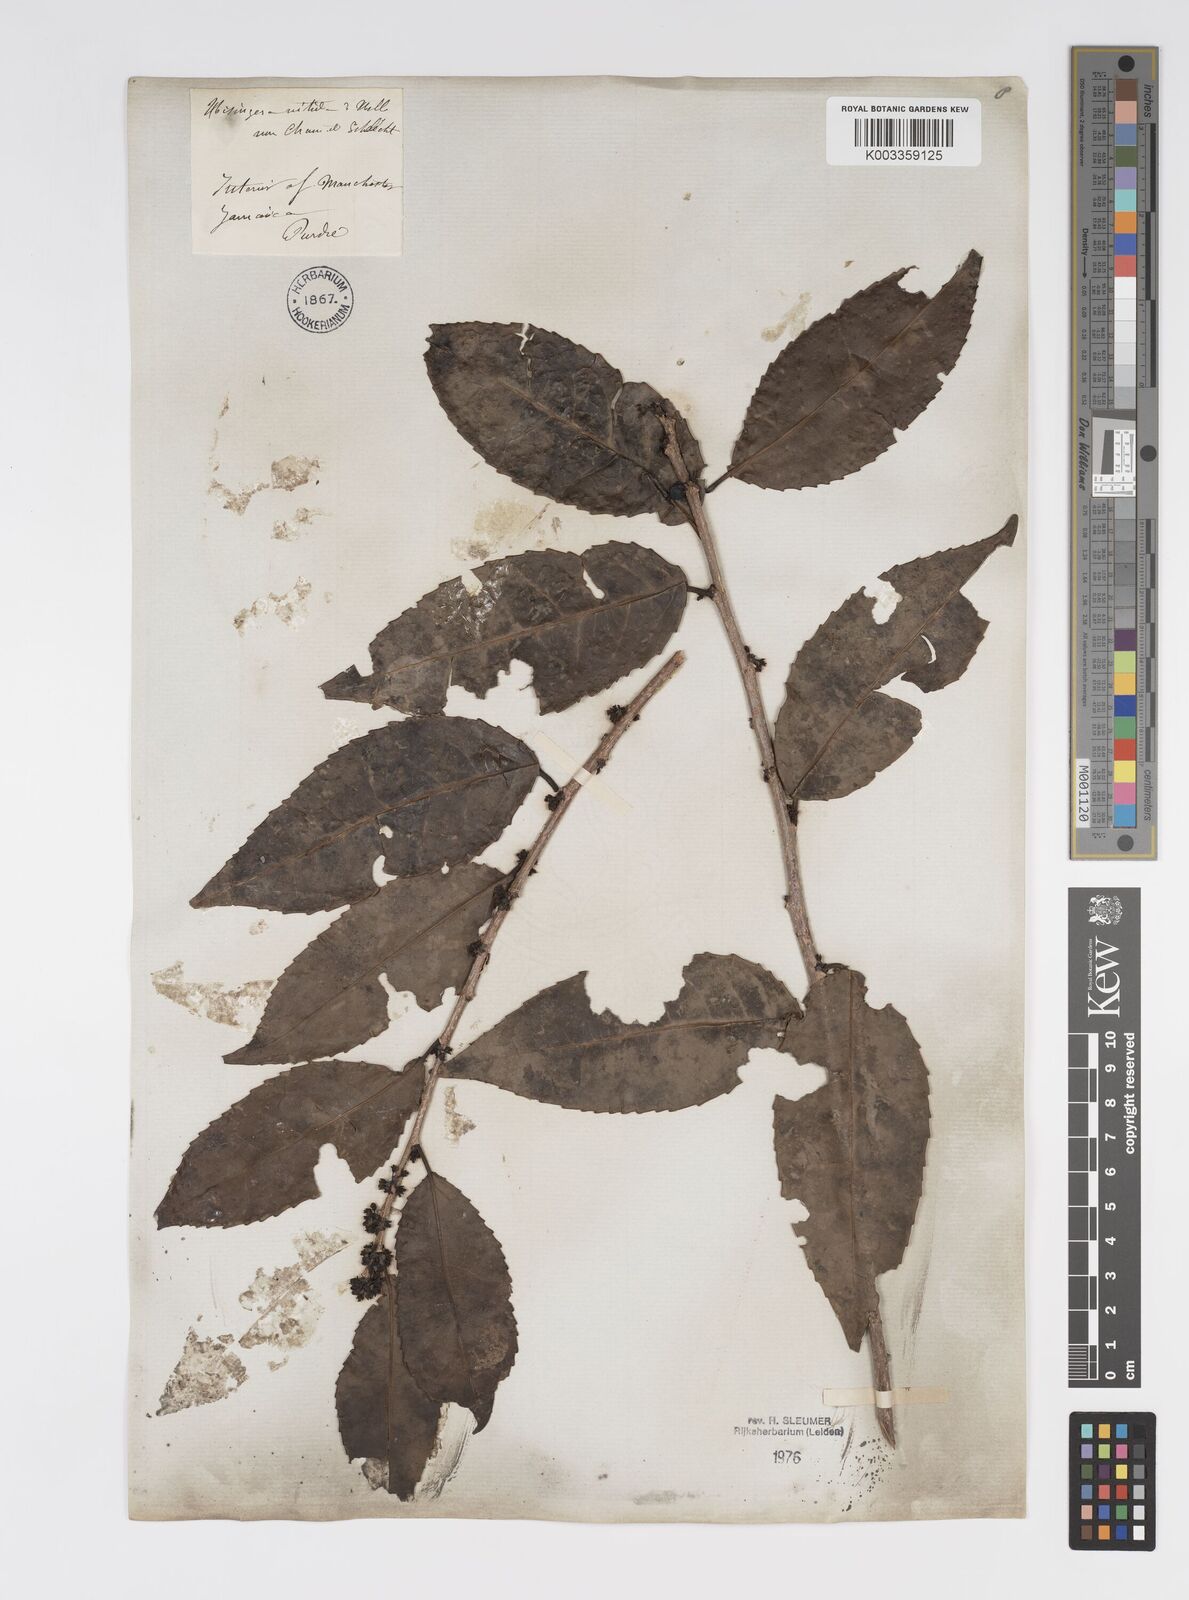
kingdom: Plantae
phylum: Tracheophyta
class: Magnoliopsida
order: Malpighiales
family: Salicaceae
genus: Xylosma
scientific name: Xylosma nitida
